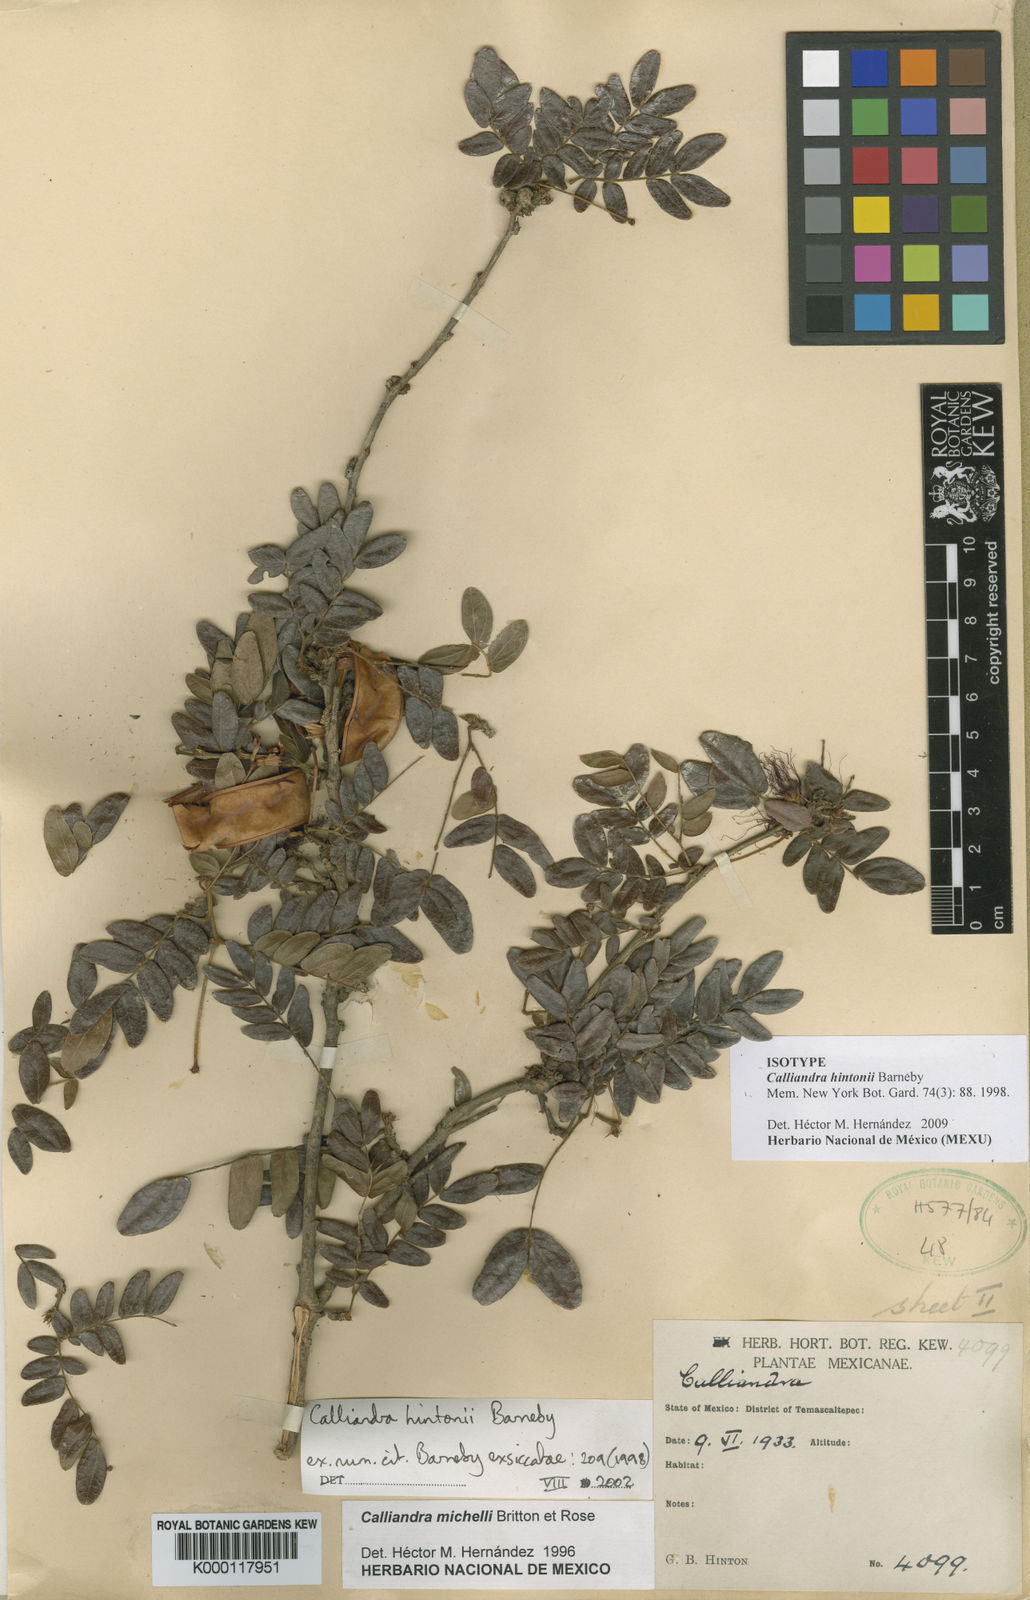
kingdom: Plantae
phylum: Tracheophyta
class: Magnoliopsida
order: Fabales
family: Fabaceae
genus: Calliandra
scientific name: Calliandra hintonii
